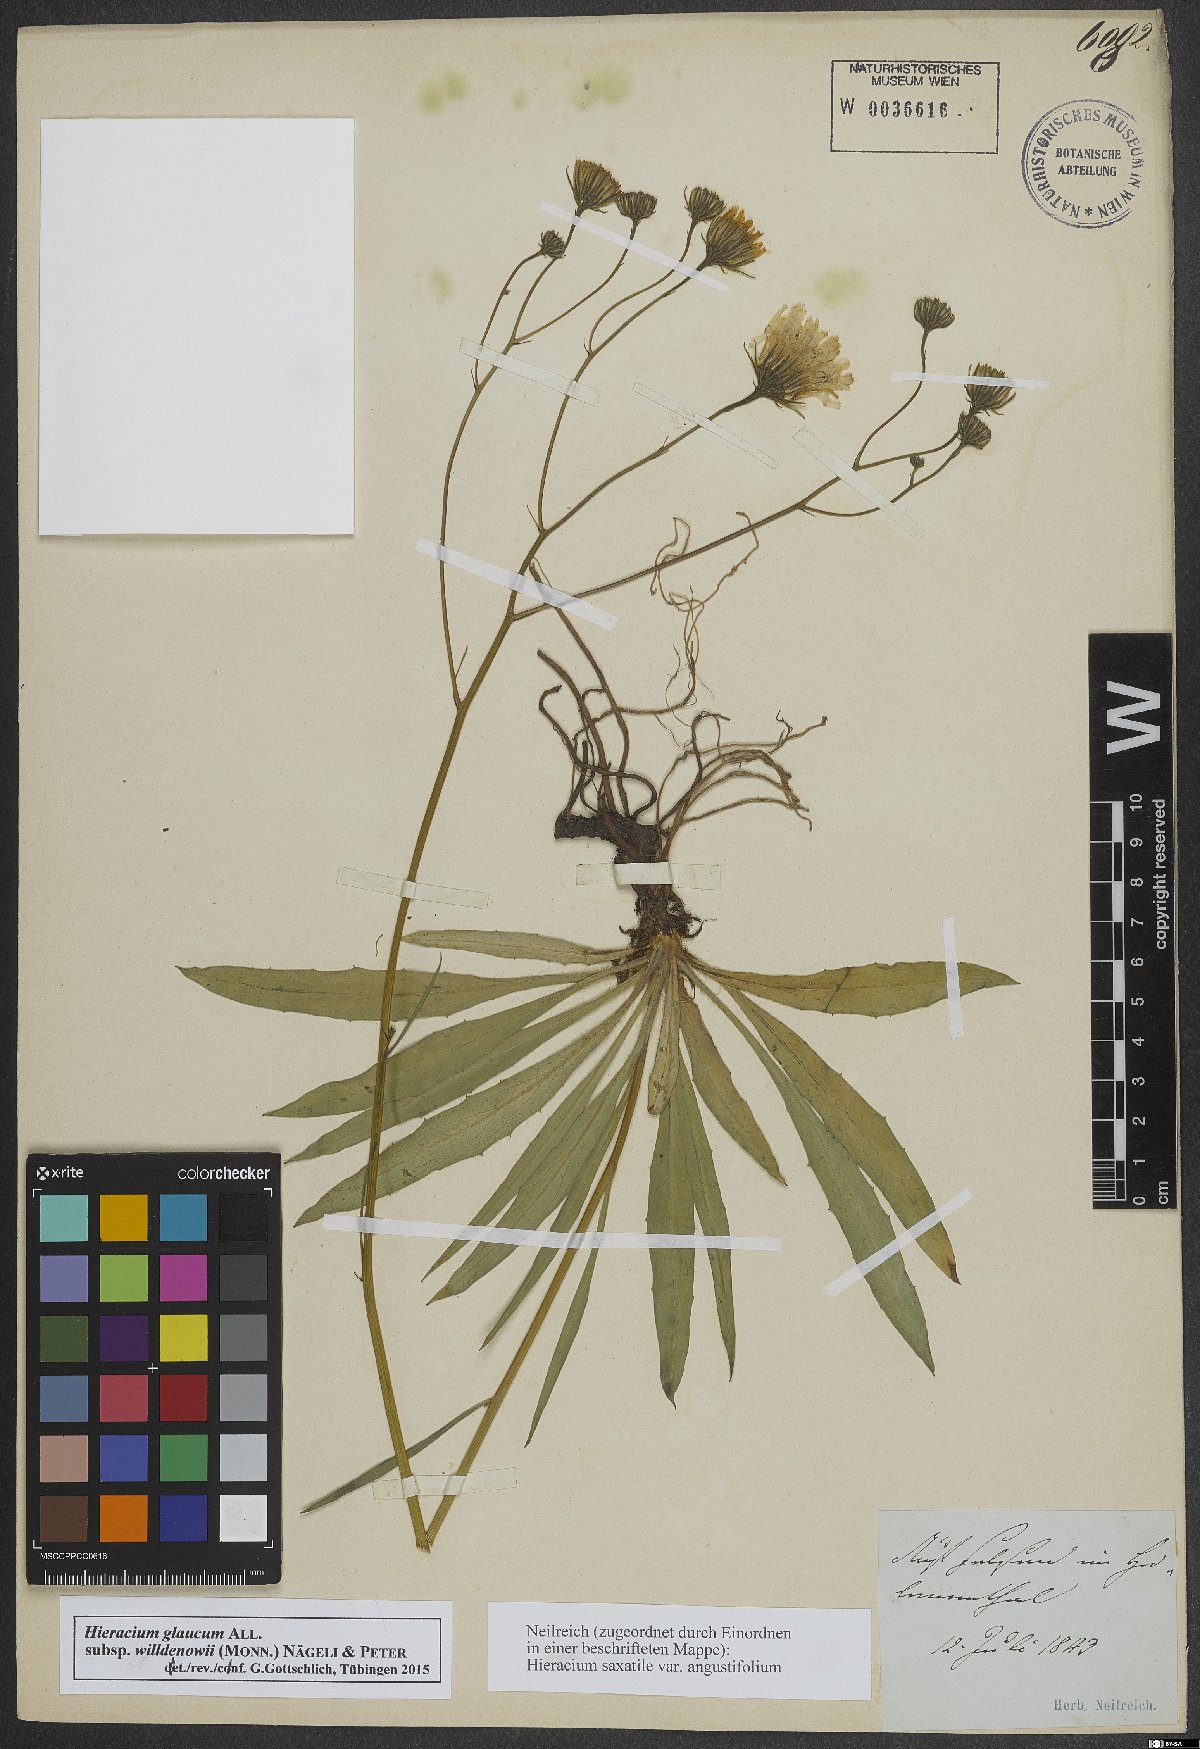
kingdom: Plantae
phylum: Tracheophyta
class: Magnoliopsida
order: Asterales
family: Asteraceae
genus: Hieracium
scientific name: Hieracium glaucum
